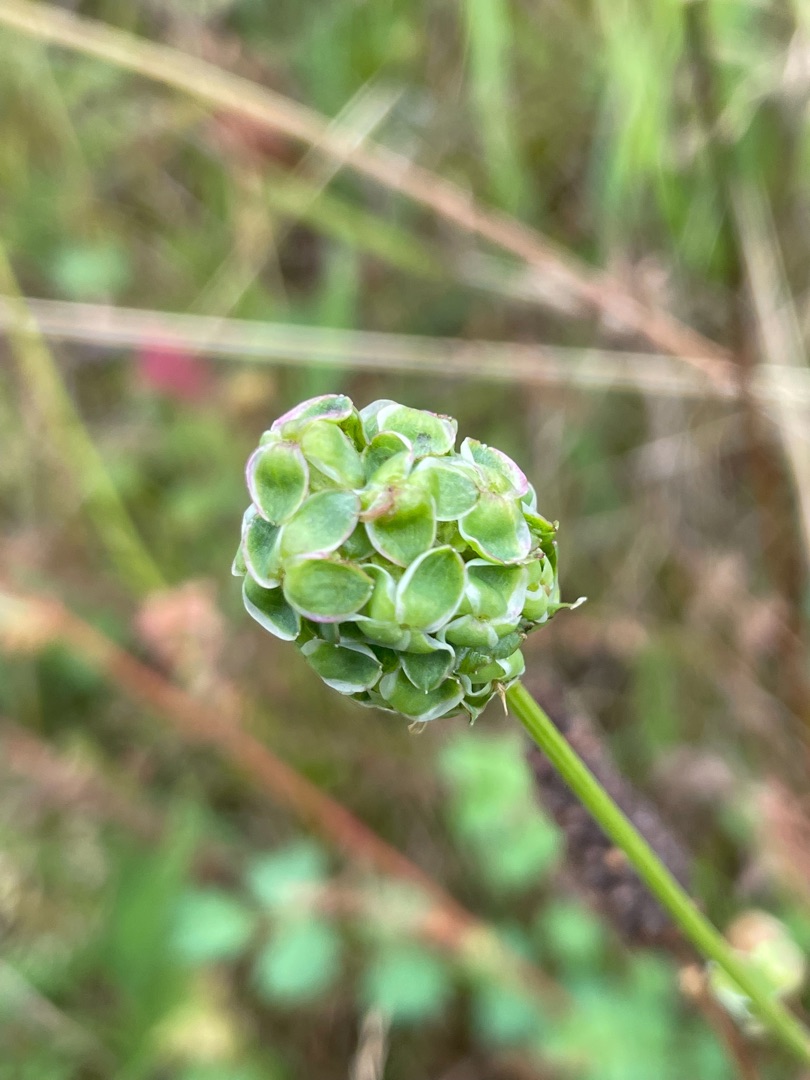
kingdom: Plantae
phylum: Tracheophyta
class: Magnoliopsida
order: Rosales
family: Rosaceae
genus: Poterium
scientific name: Poterium sanguisorba
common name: Bibernelle
